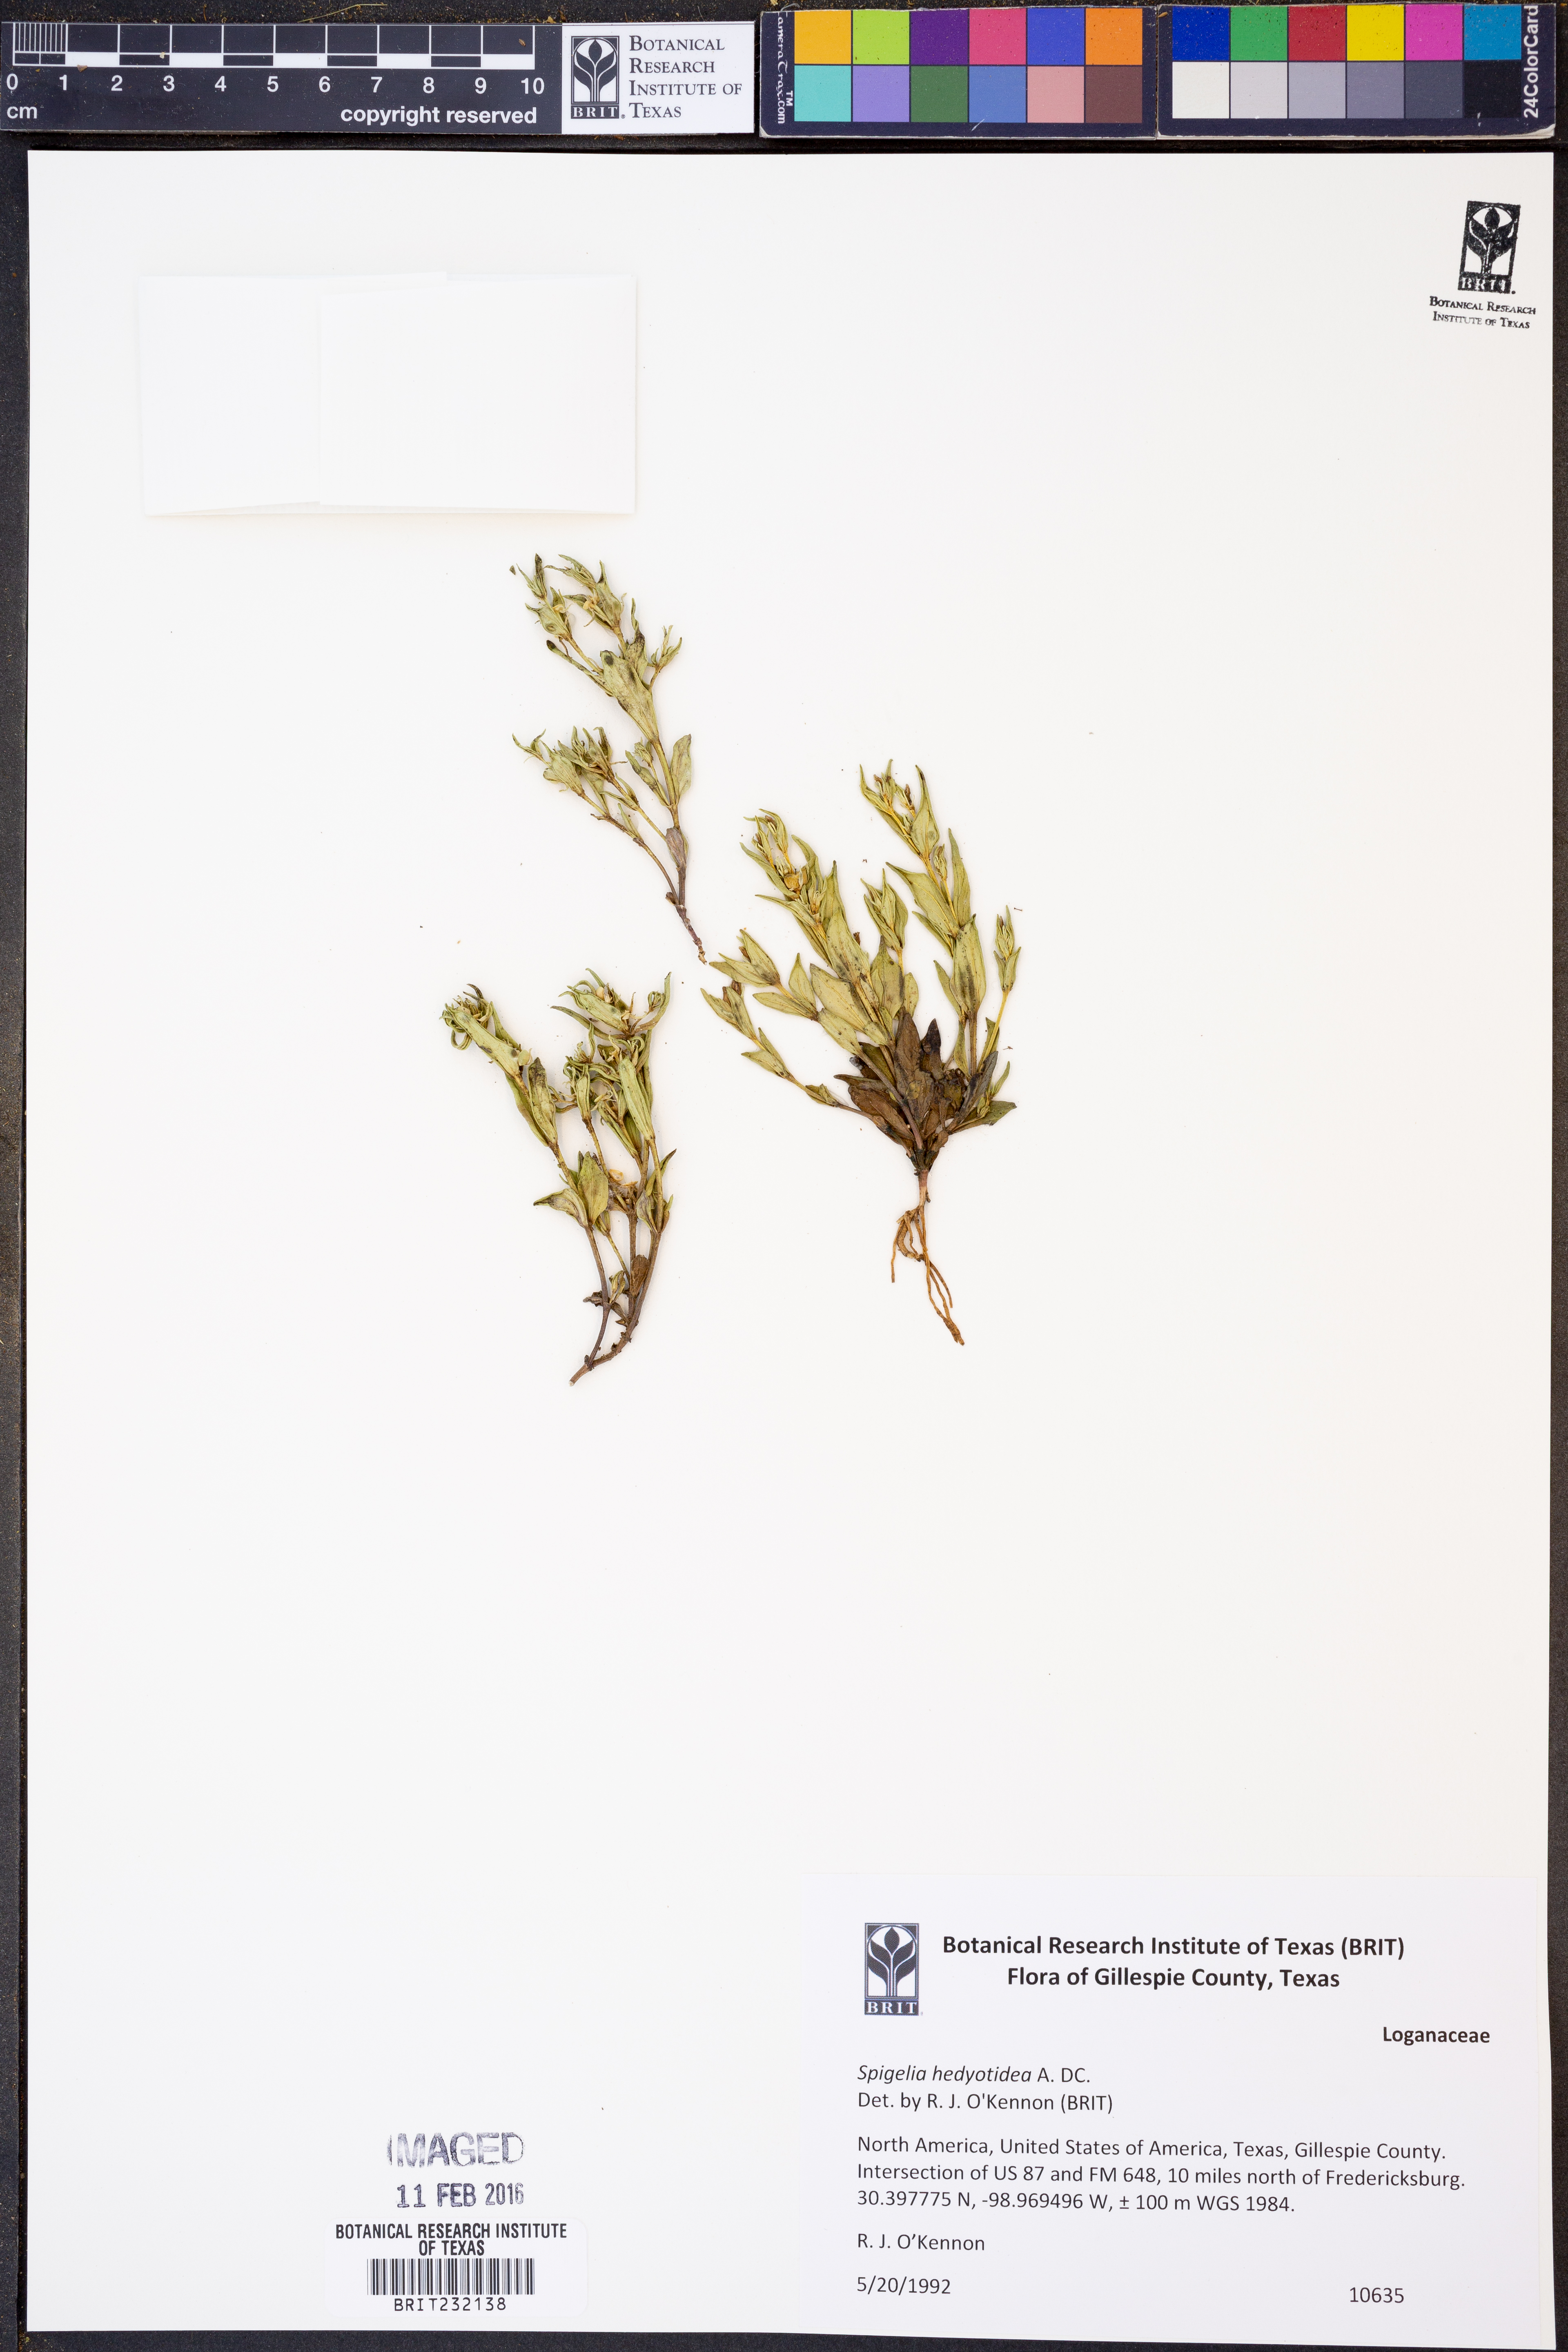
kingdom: Plantae
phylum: Tracheophyta
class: Magnoliopsida
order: Gentianales
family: Loganiaceae
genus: Spigelia
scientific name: Spigelia hedyotidea
